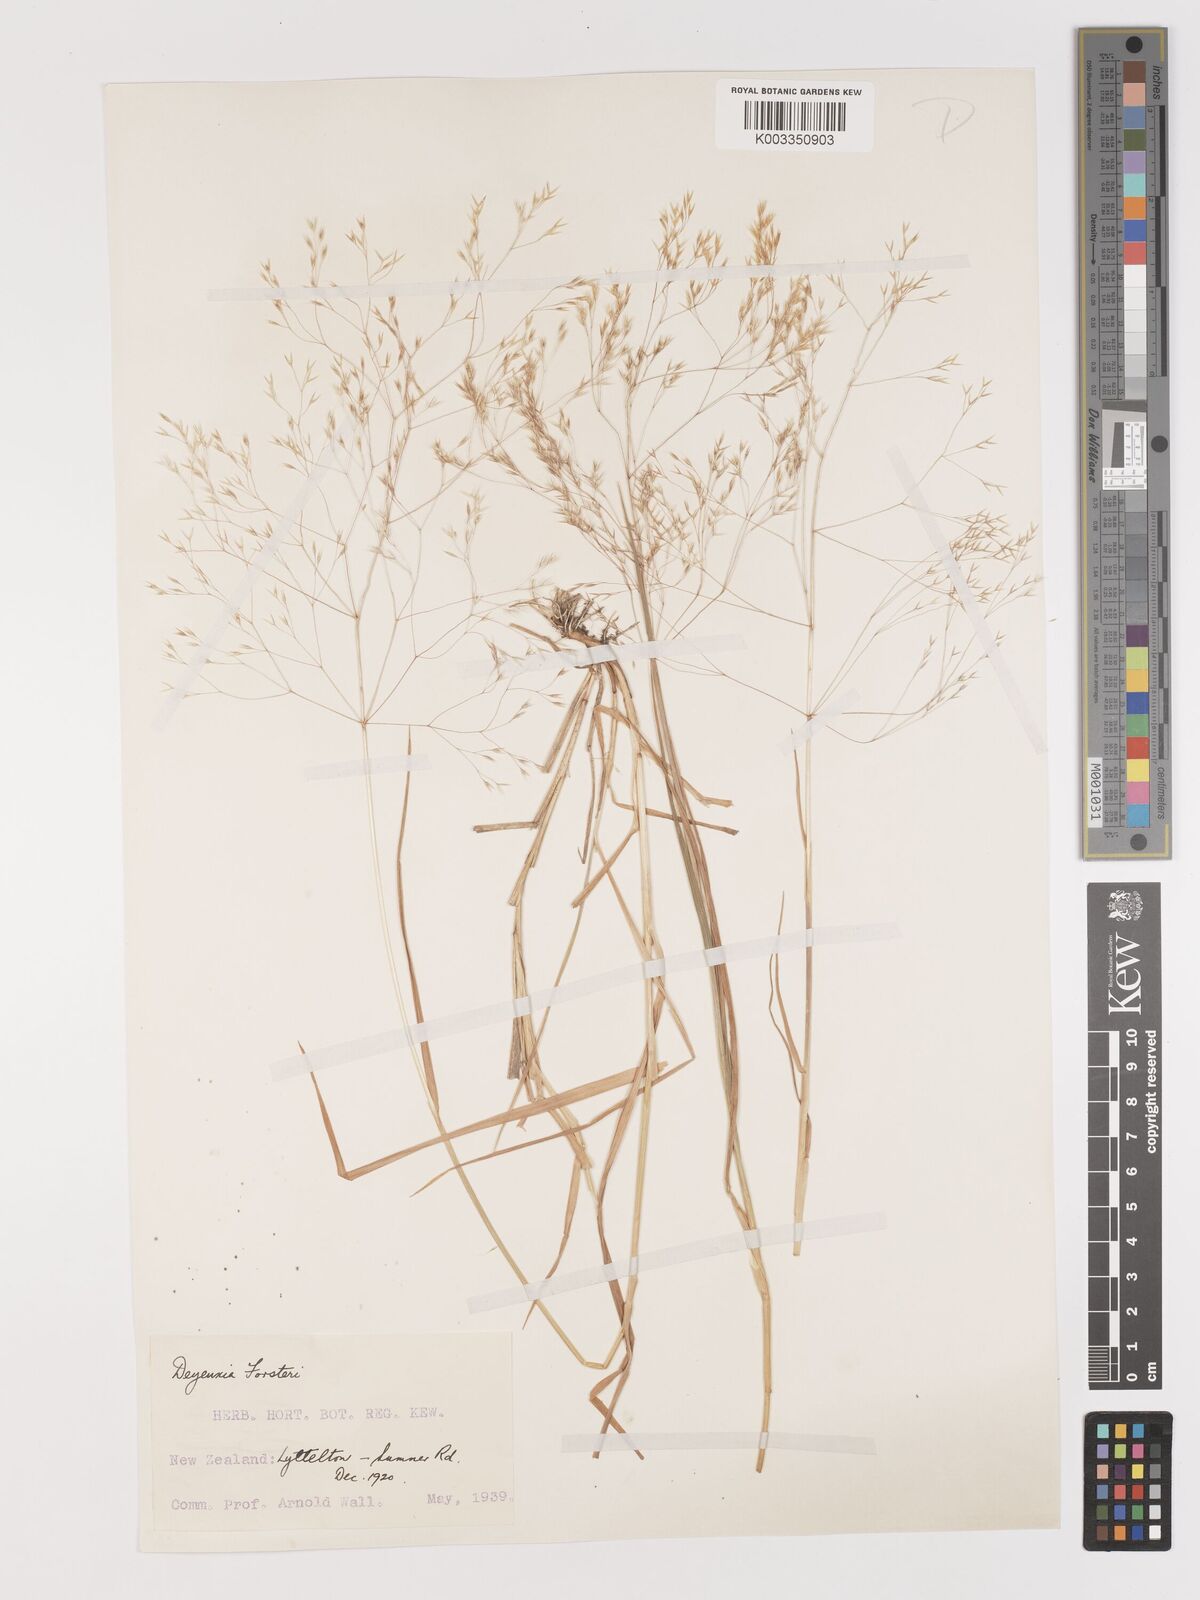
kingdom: Plantae
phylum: Tracheophyta
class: Liliopsida
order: Poales
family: Poaceae
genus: Lachnagrostis
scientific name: Lachnagrostis filiformis
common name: Bentgrass
